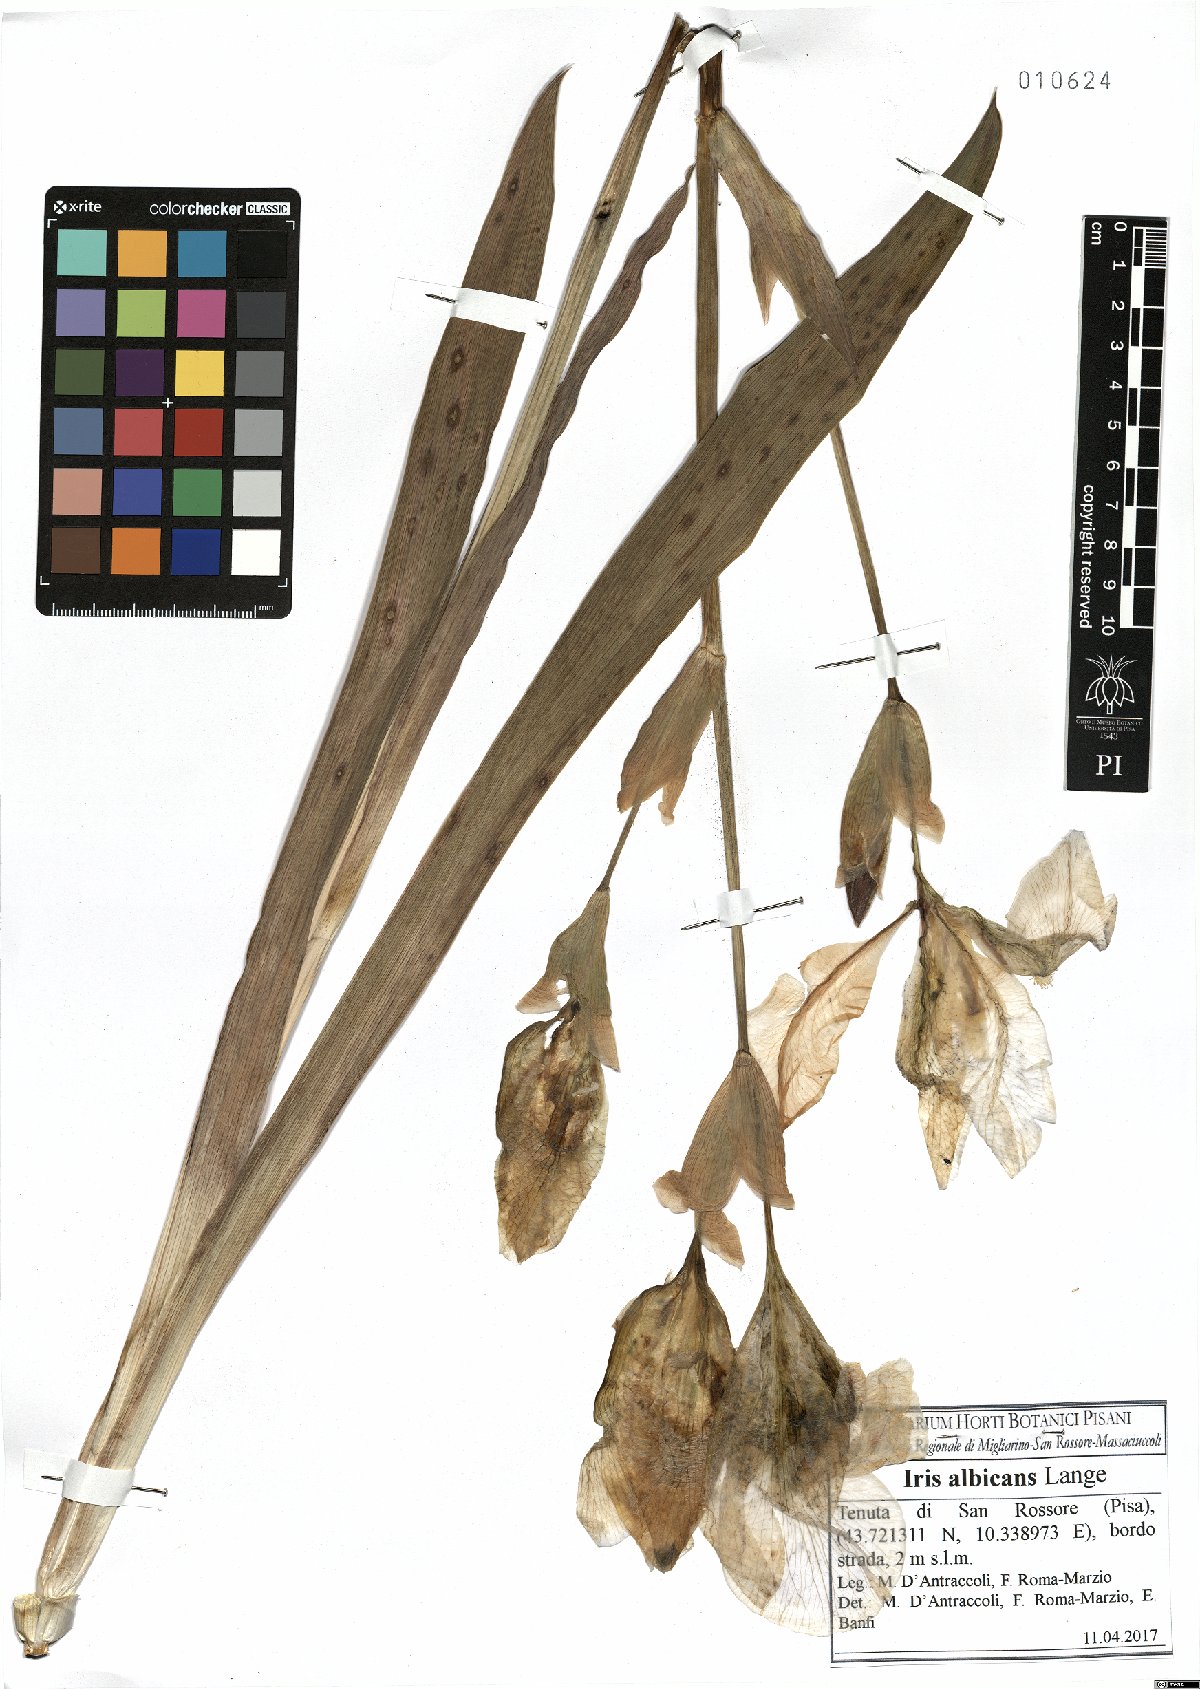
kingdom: Plantae
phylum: Tracheophyta
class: Liliopsida
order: Asparagales
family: Iridaceae
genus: Iris
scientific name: Iris florentina
